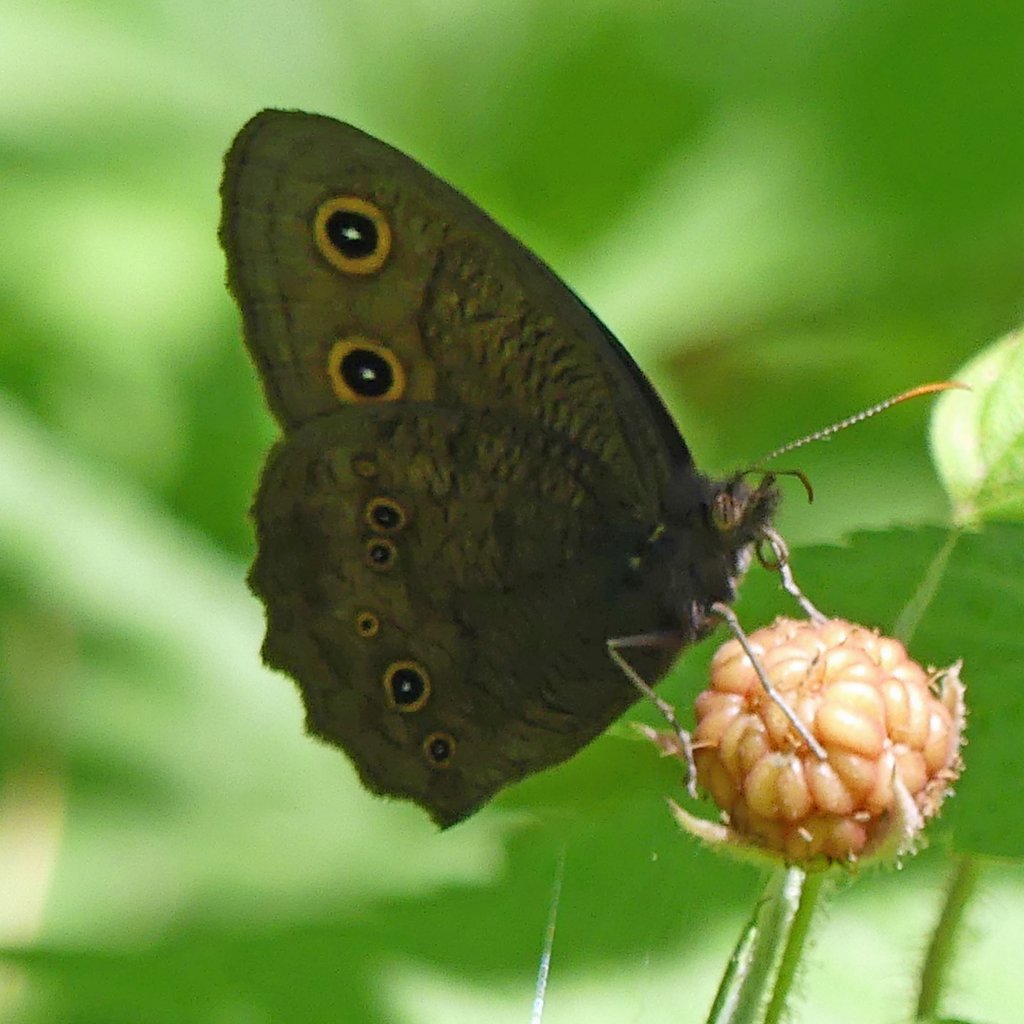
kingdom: Animalia
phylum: Arthropoda
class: Insecta
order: Lepidoptera
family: Nymphalidae
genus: Cercyonis
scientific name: Cercyonis pegala
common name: Common Wood-Nymph
